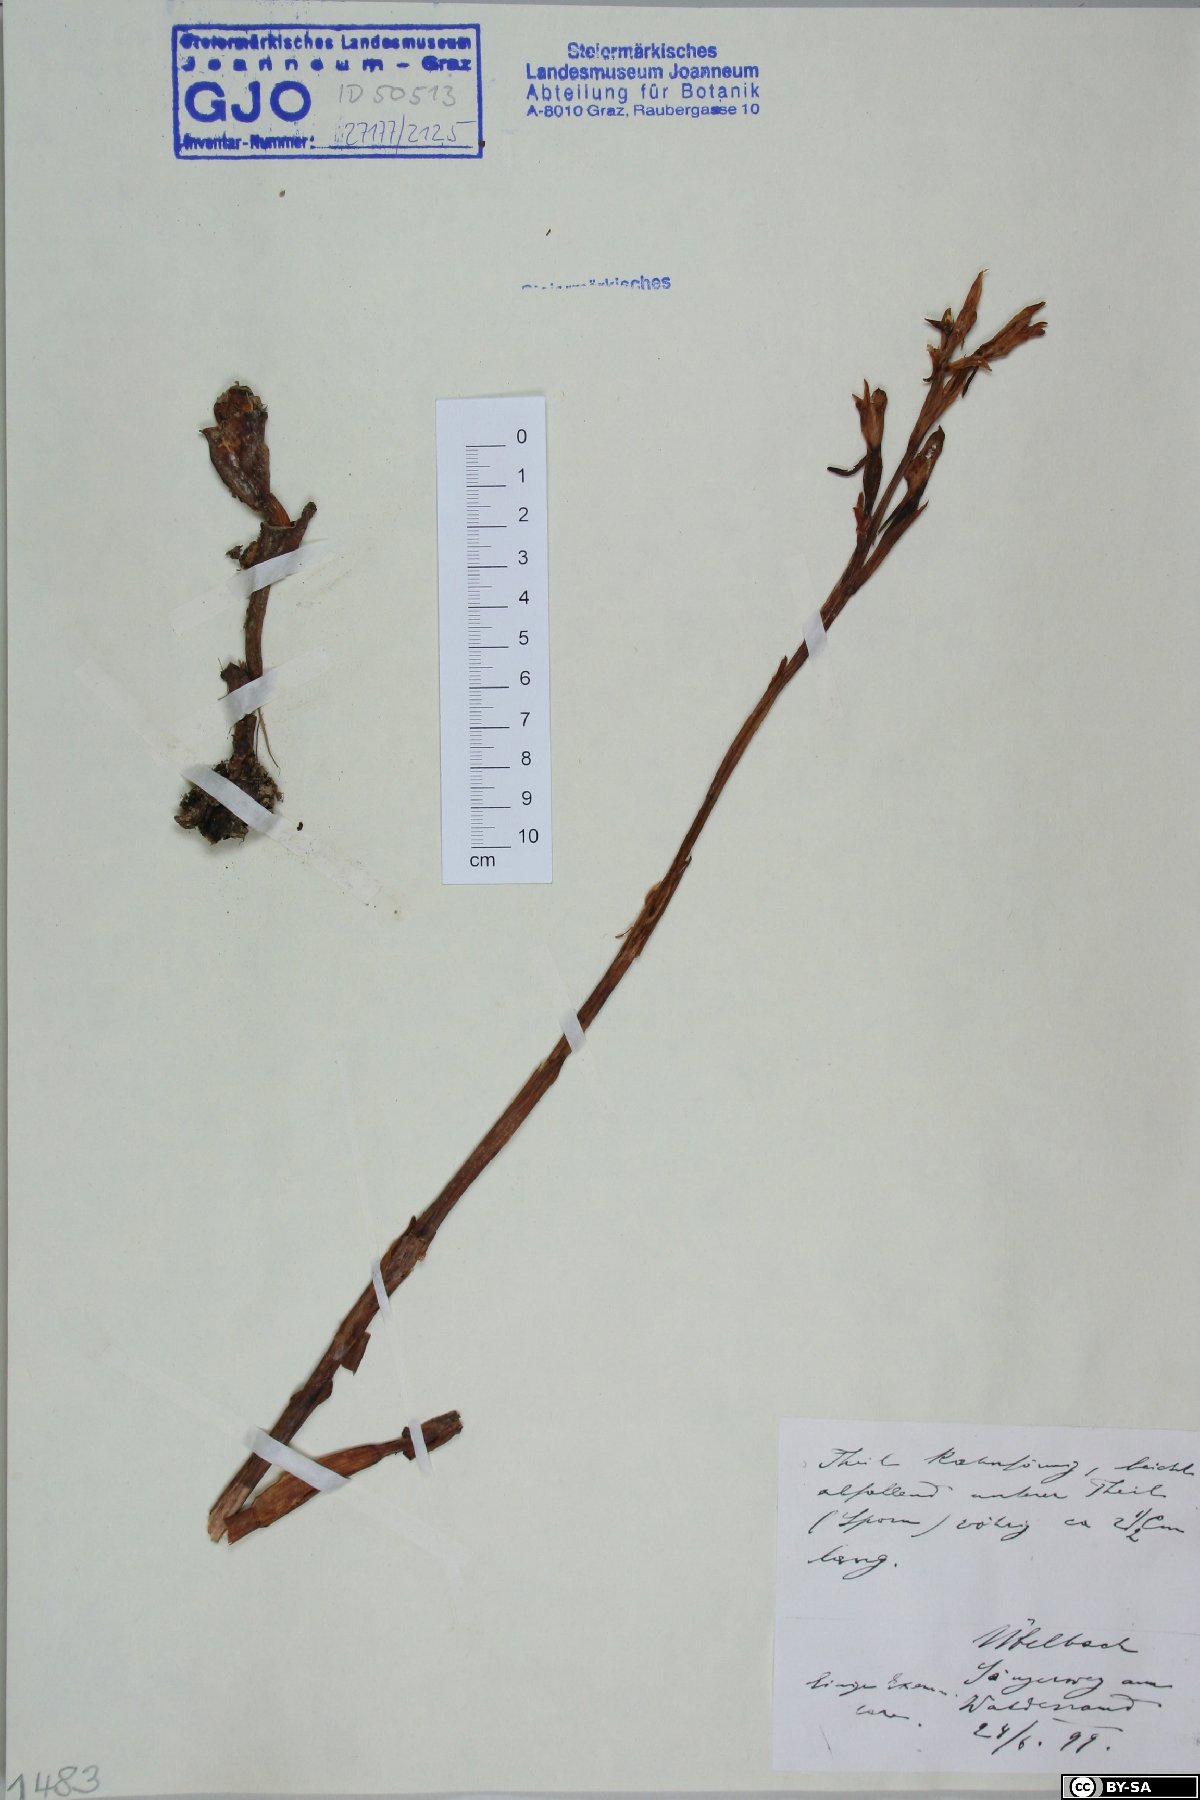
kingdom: Plantae
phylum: Tracheophyta
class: Liliopsida
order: Asparagales
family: Orchidaceae
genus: Limodorum
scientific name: Limodorum abortivum
